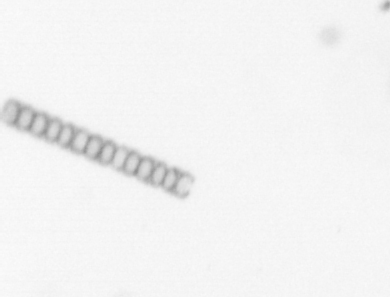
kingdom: Chromista
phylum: Ochrophyta
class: Bacillariophyceae
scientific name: Bacillariophyceae
